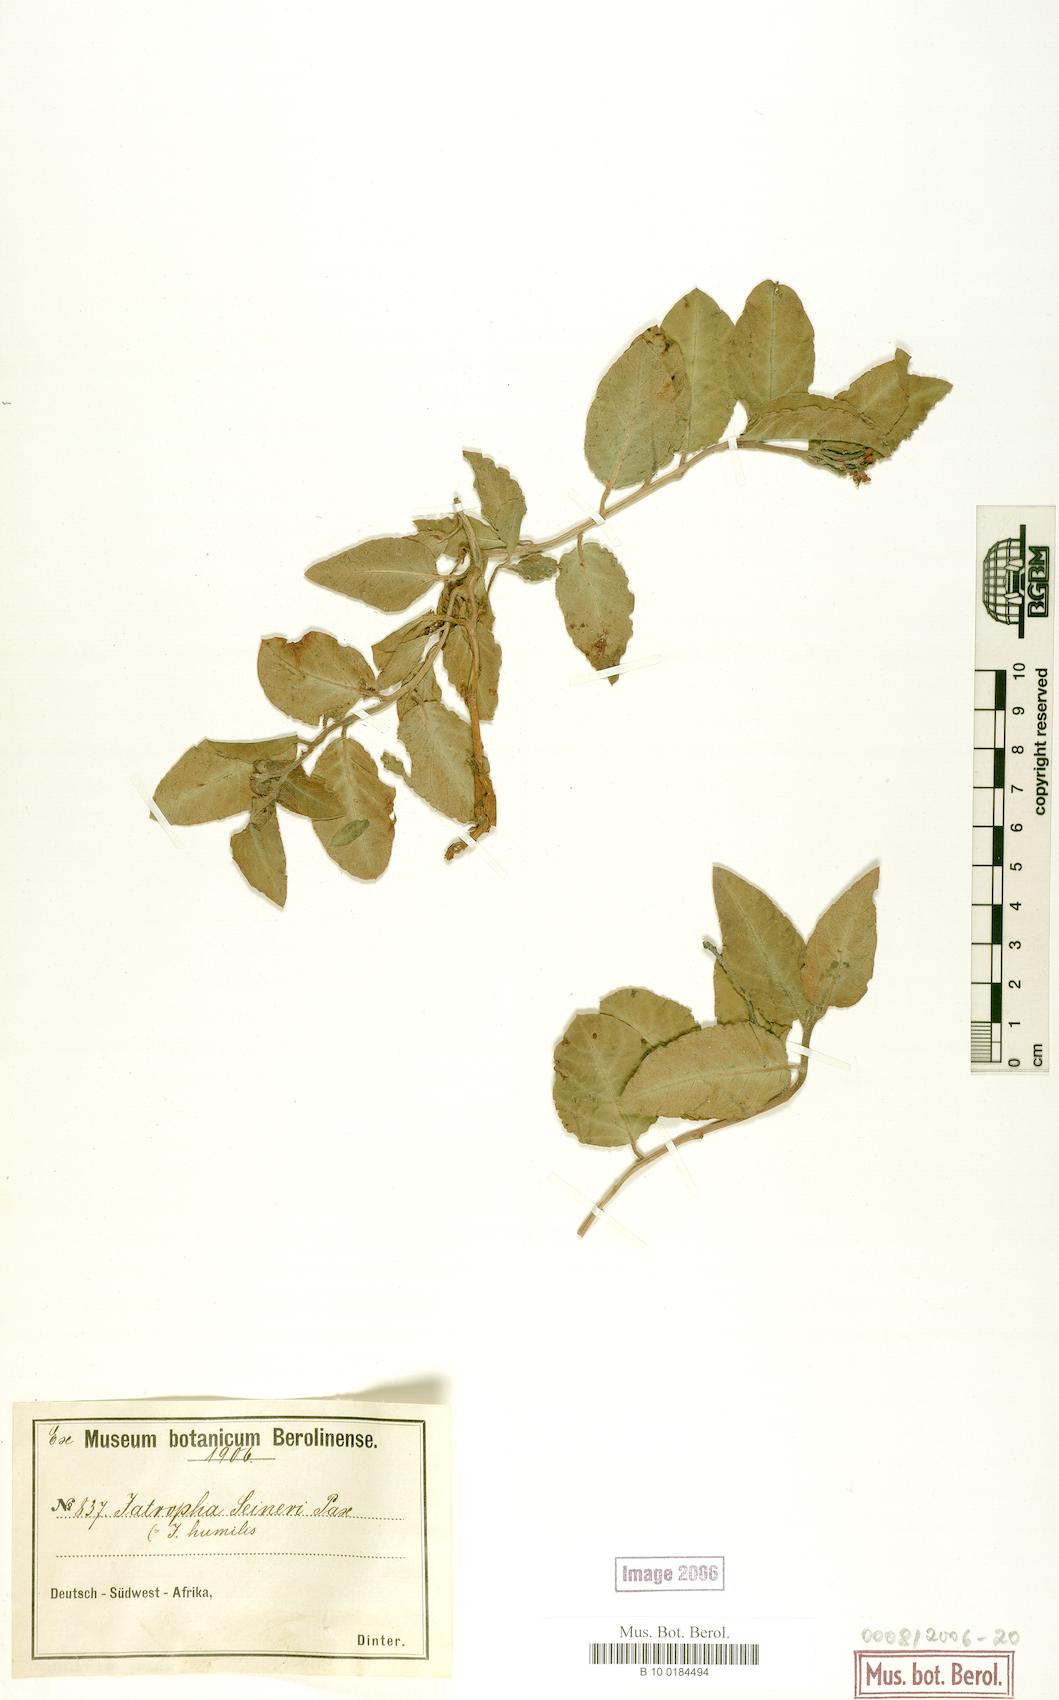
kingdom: Plantae
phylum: Tracheophyta
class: Magnoliopsida
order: Malpighiales
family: Euphorbiaceae
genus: Jatropha
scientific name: Jatropha decumbens
